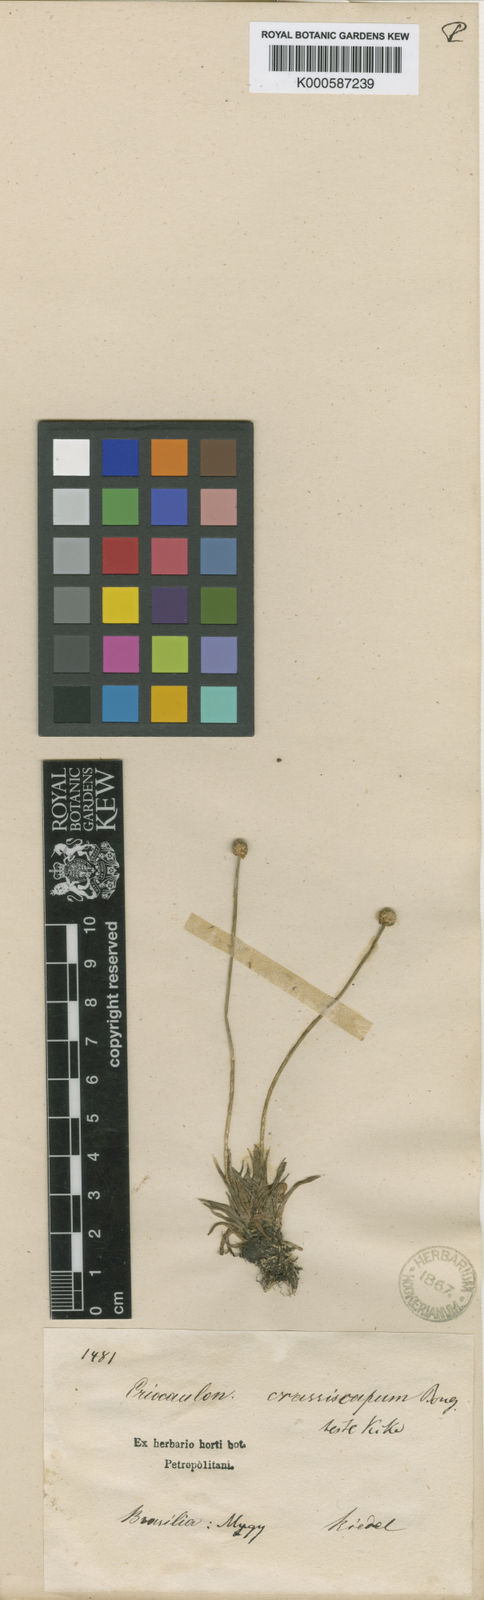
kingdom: Plantae
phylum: Tracheophyta
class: Liliopsida
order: Poales
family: Eriocaulaceae
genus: Eriocaulon
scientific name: Eriocaulon crassiscapum
